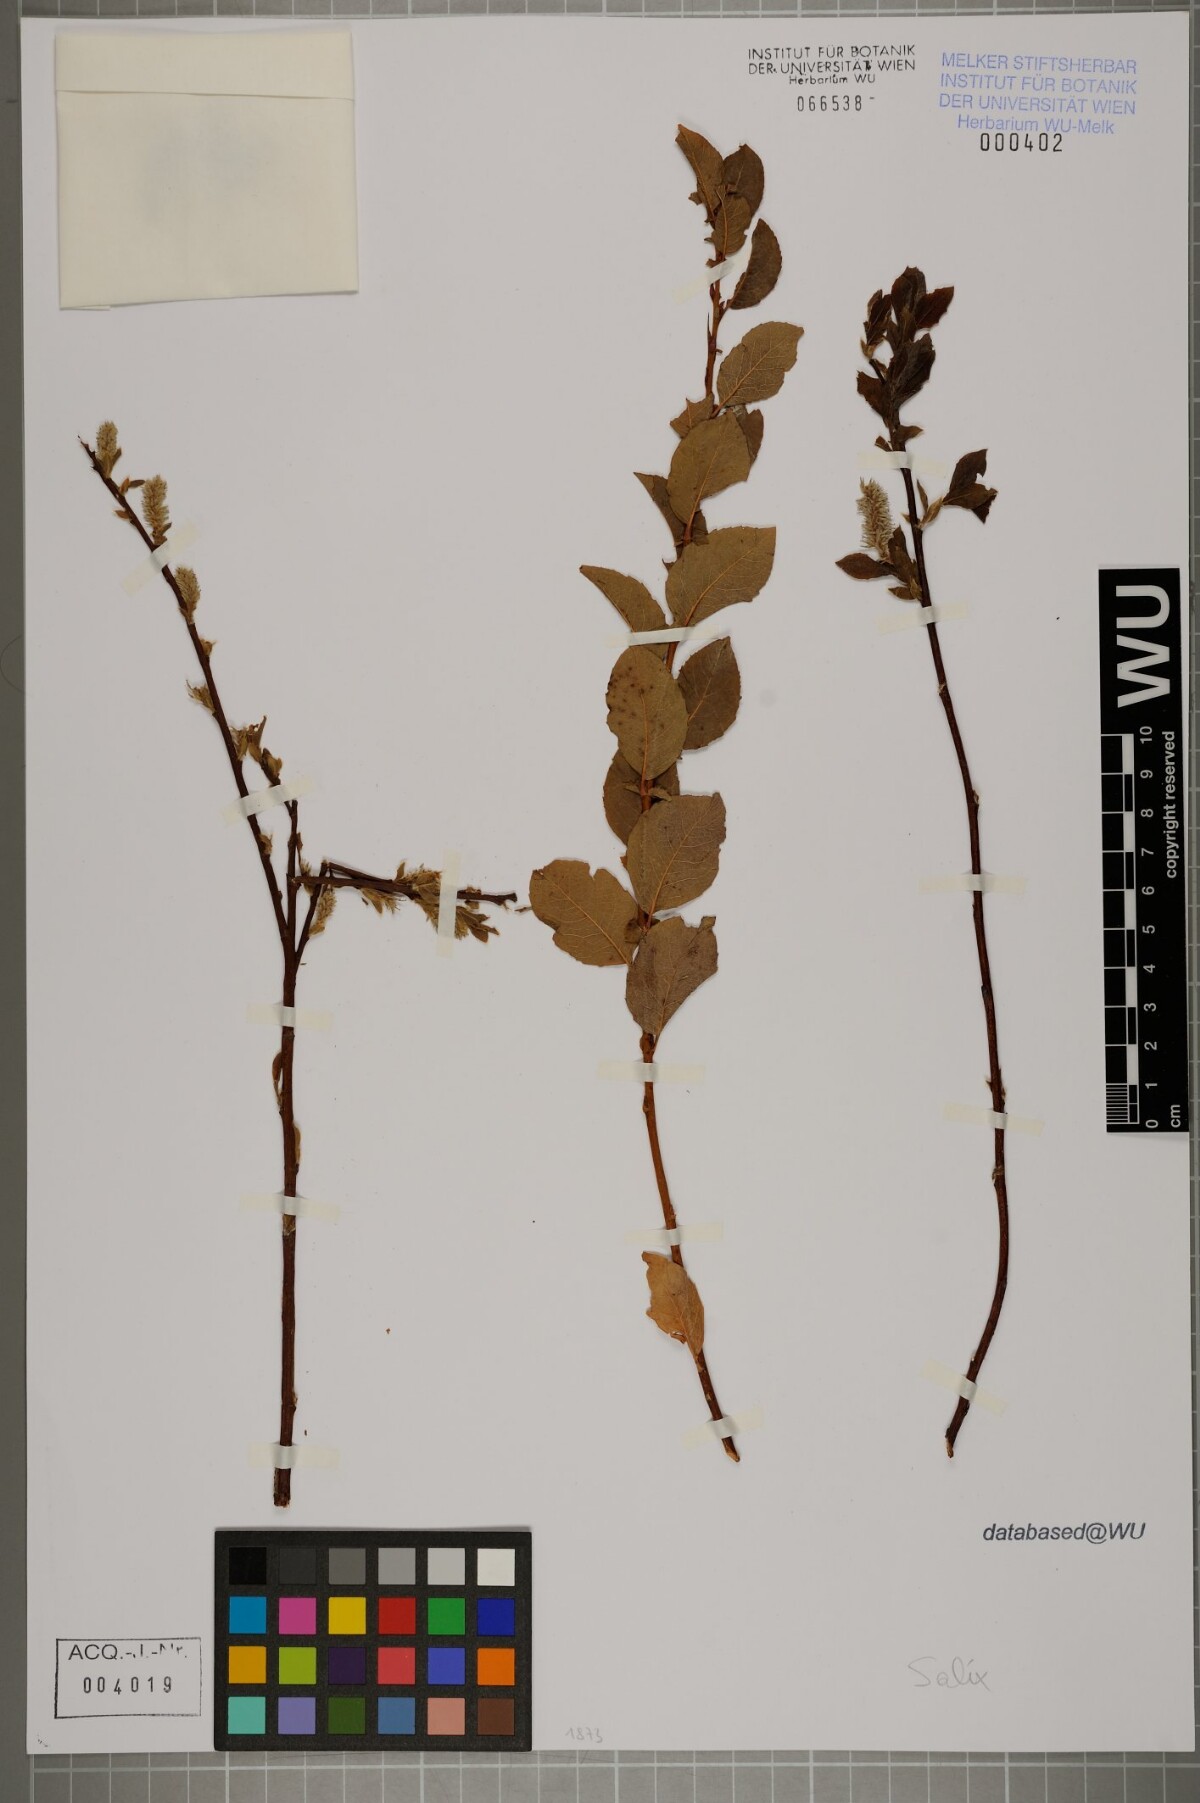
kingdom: Plantae
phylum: Tracheophyta
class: Magnoliopsida
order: Malpighiales
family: Salicaceae
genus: Salix
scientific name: Salix
